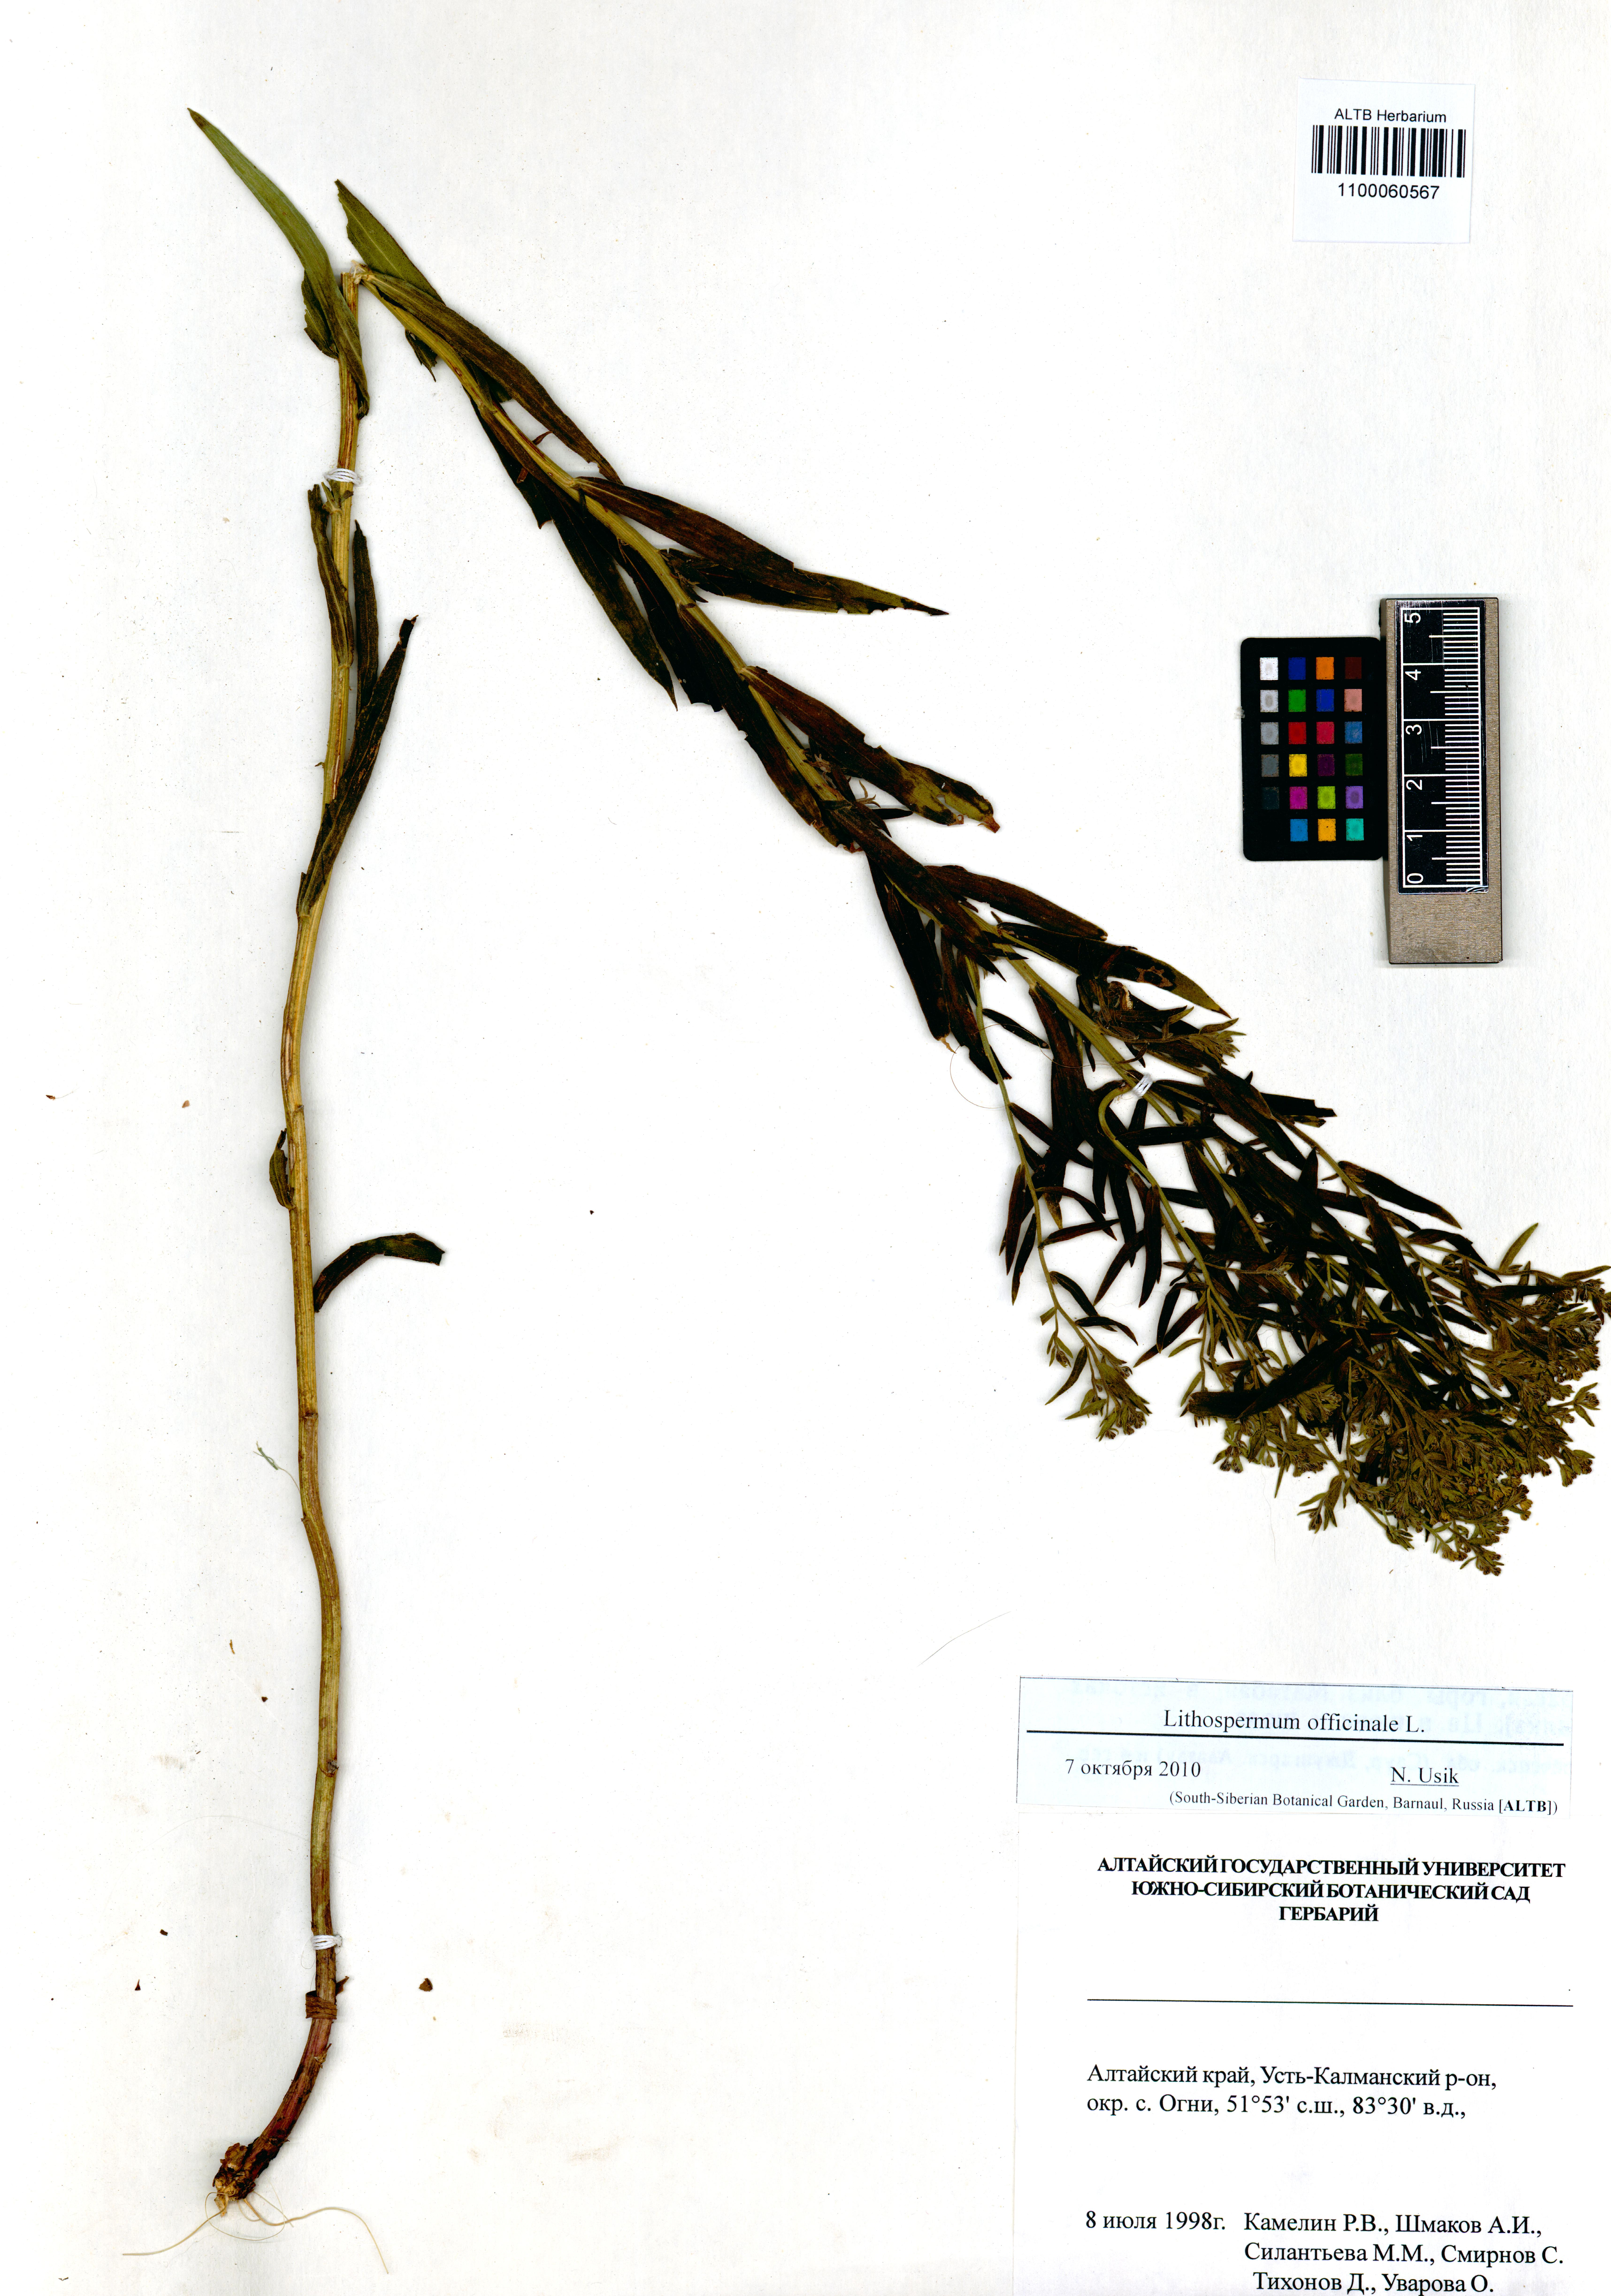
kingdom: Plantae
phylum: Tracheophyta
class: Magnoliopsida
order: Boraginales
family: Boraginaceae
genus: Lithospermum
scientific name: Lithospermum officinale
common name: Common gromwell
